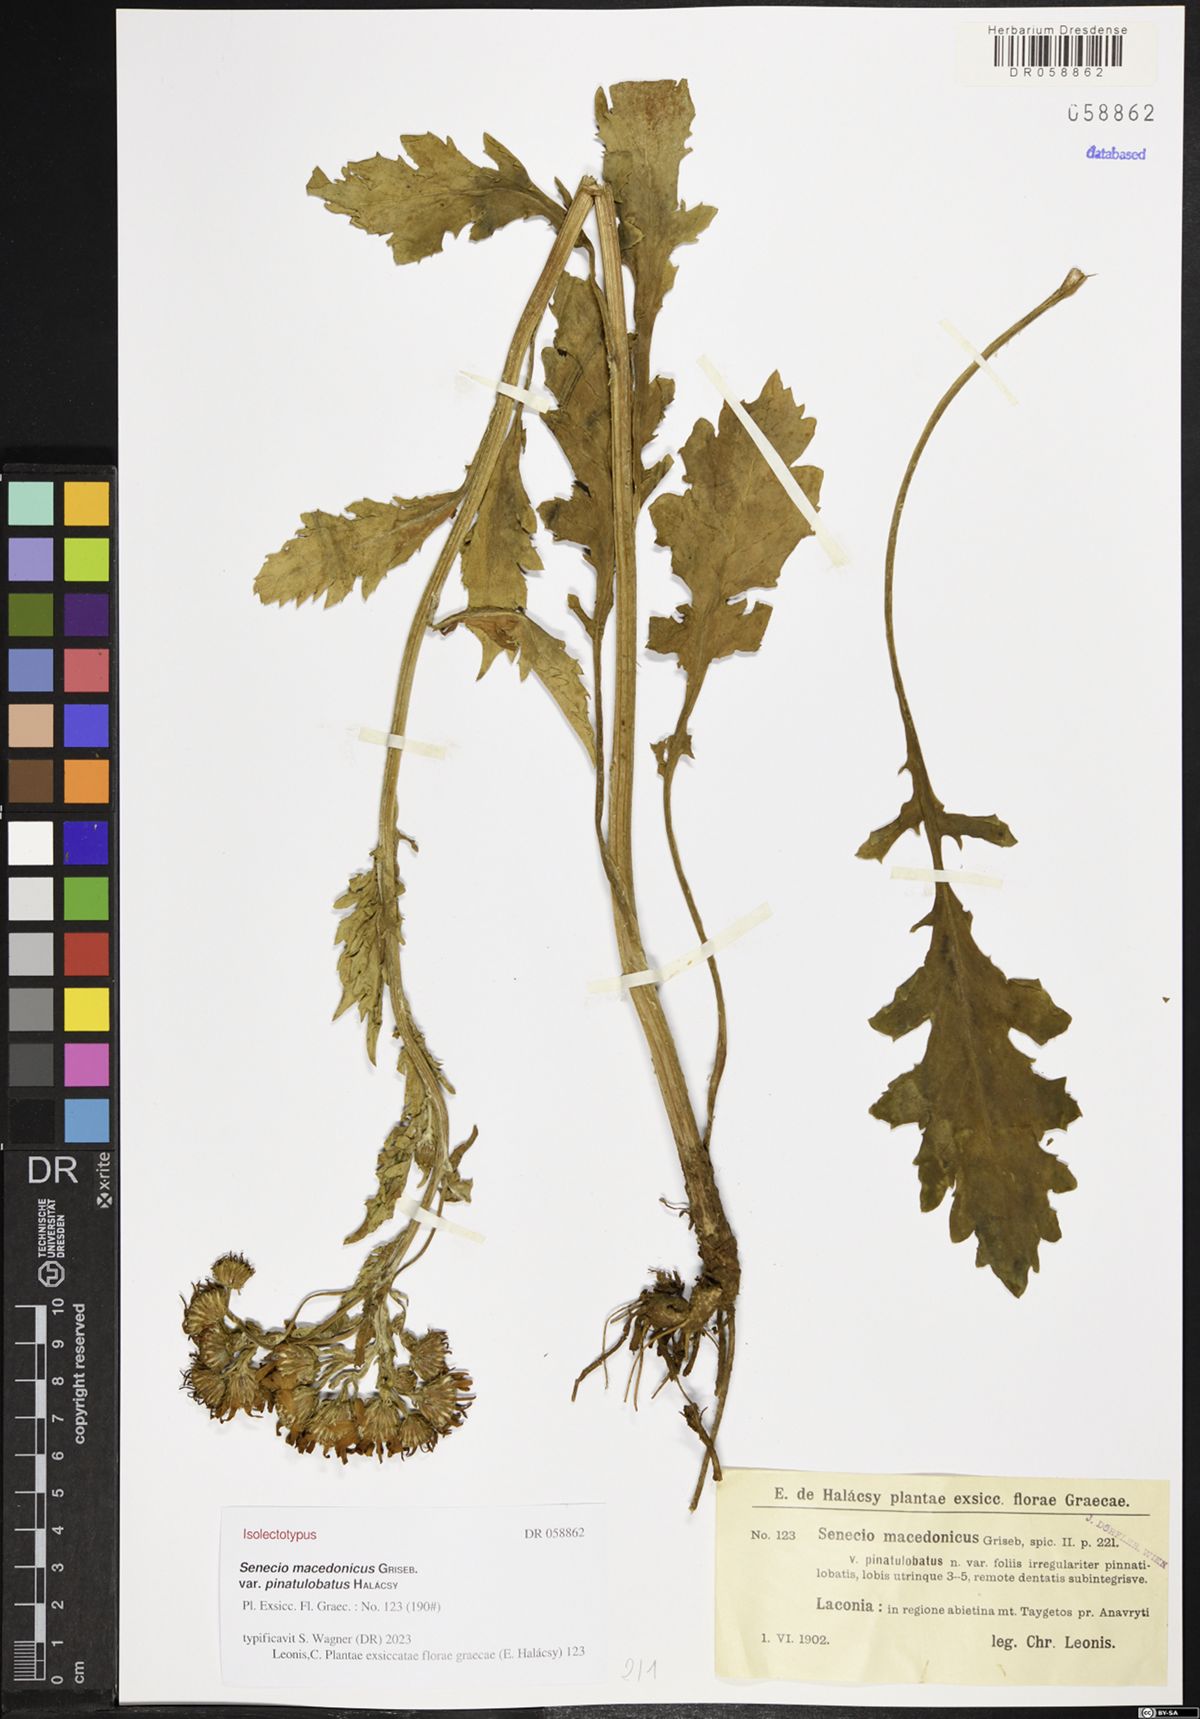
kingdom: Plantae
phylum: Tracheophyta
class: Magnoliopsida
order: Asterales
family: Asteraceae
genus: Senecio
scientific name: Senecio macedonicus
